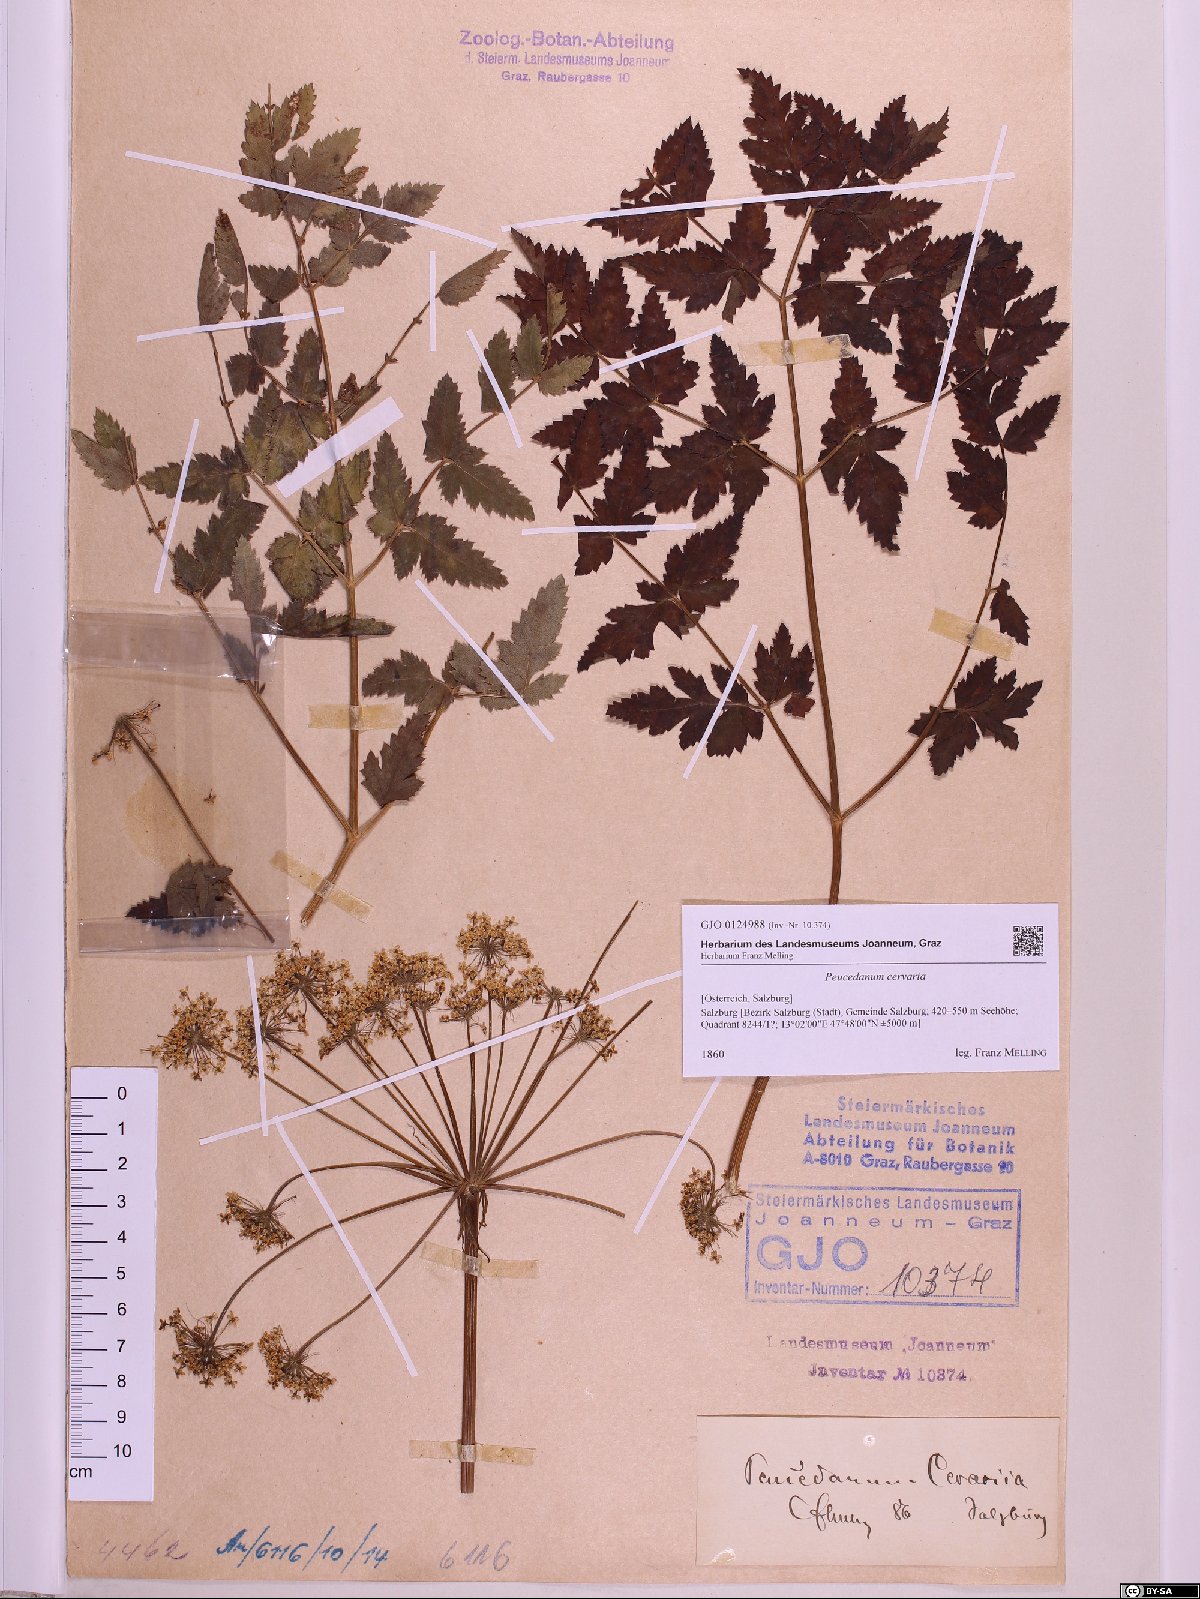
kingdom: Plantae
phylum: Tracheophyta
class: Magnoliopsida
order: Apiales
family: Apiaceae
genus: Cervaria
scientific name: Cervaria rivini
